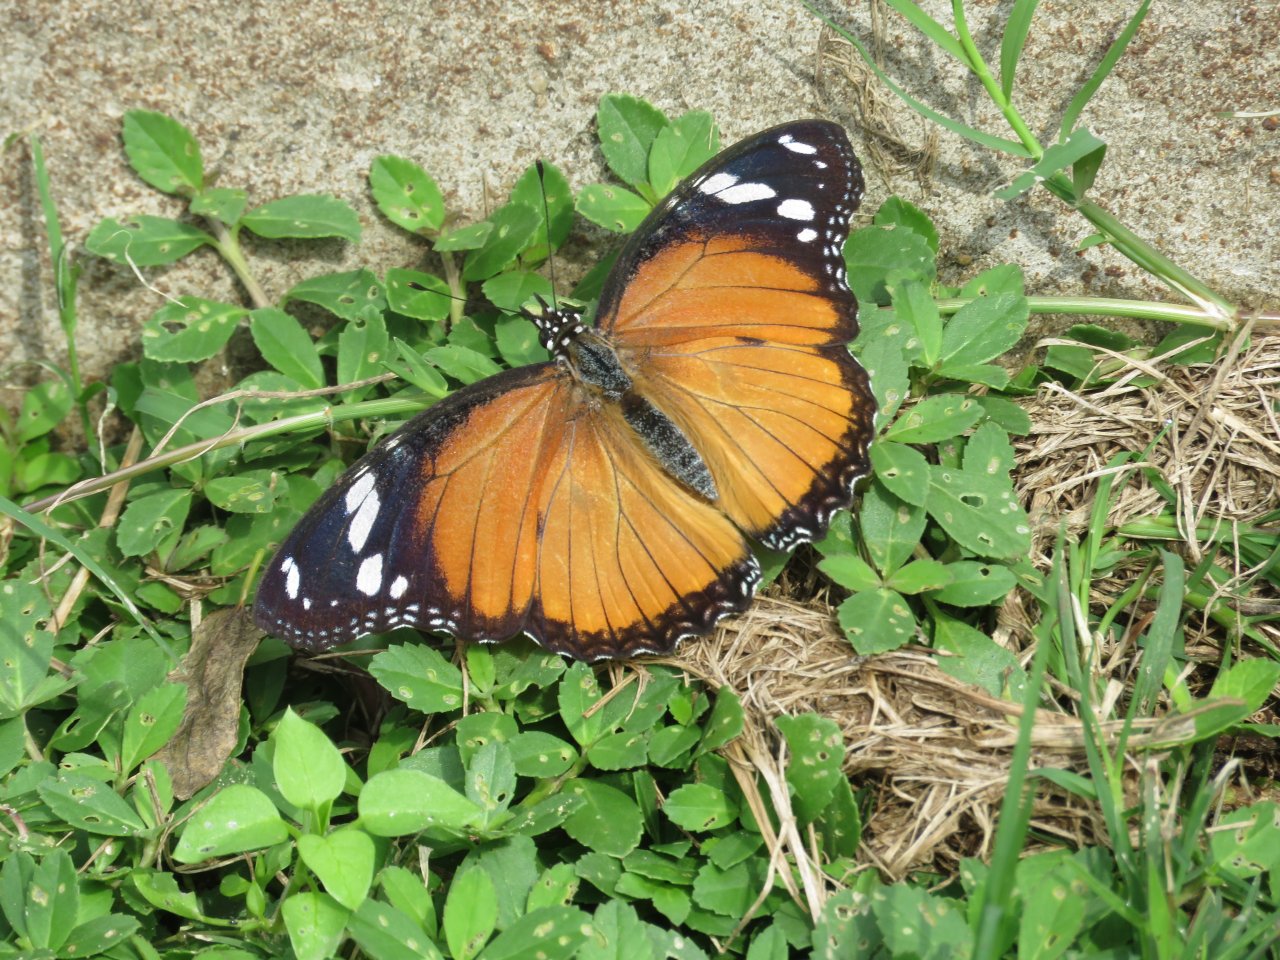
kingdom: Animalia
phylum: Arthropoda
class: Insecta
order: Lepidoptera
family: Nymphalidae
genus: Hypolimnas
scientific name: Hypolimnas misippus
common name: Mimic
